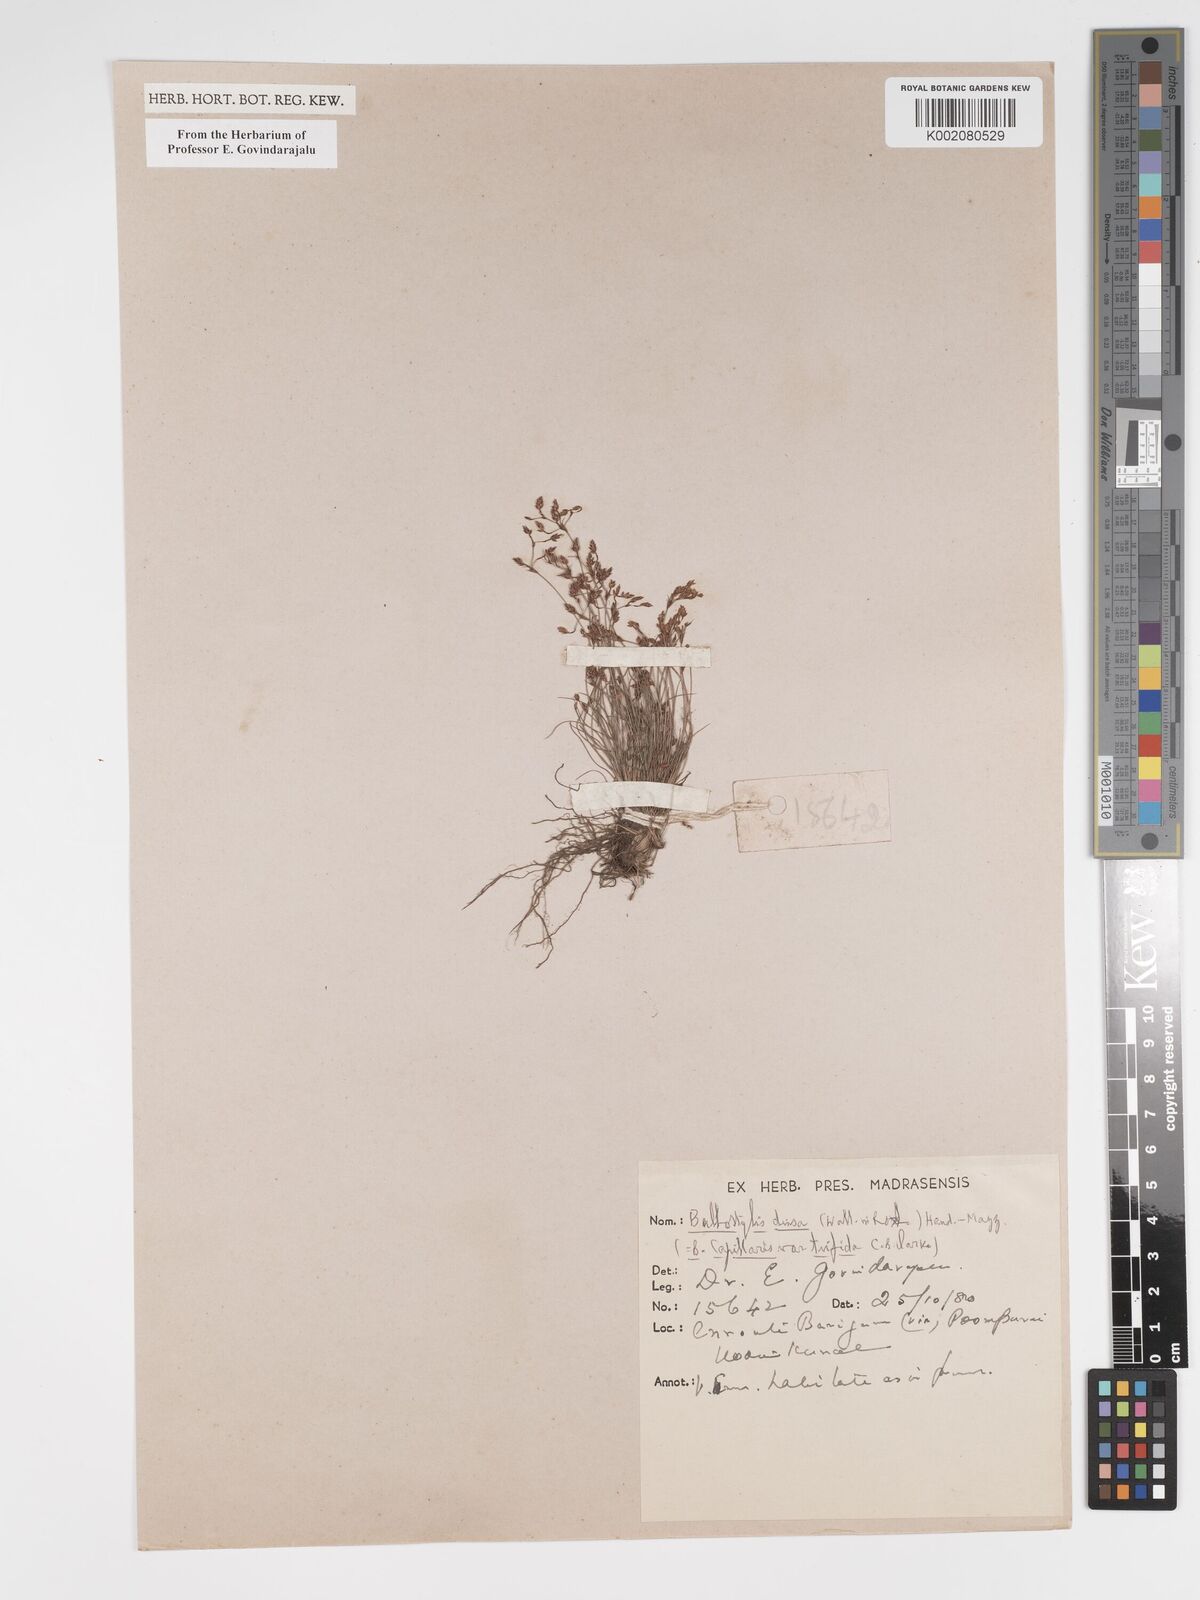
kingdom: Plantae
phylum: Tracheophyta
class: Liliopsida
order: Poales
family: Cyperaceae
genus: Bulbostylis
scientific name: Bulbostylis densa
